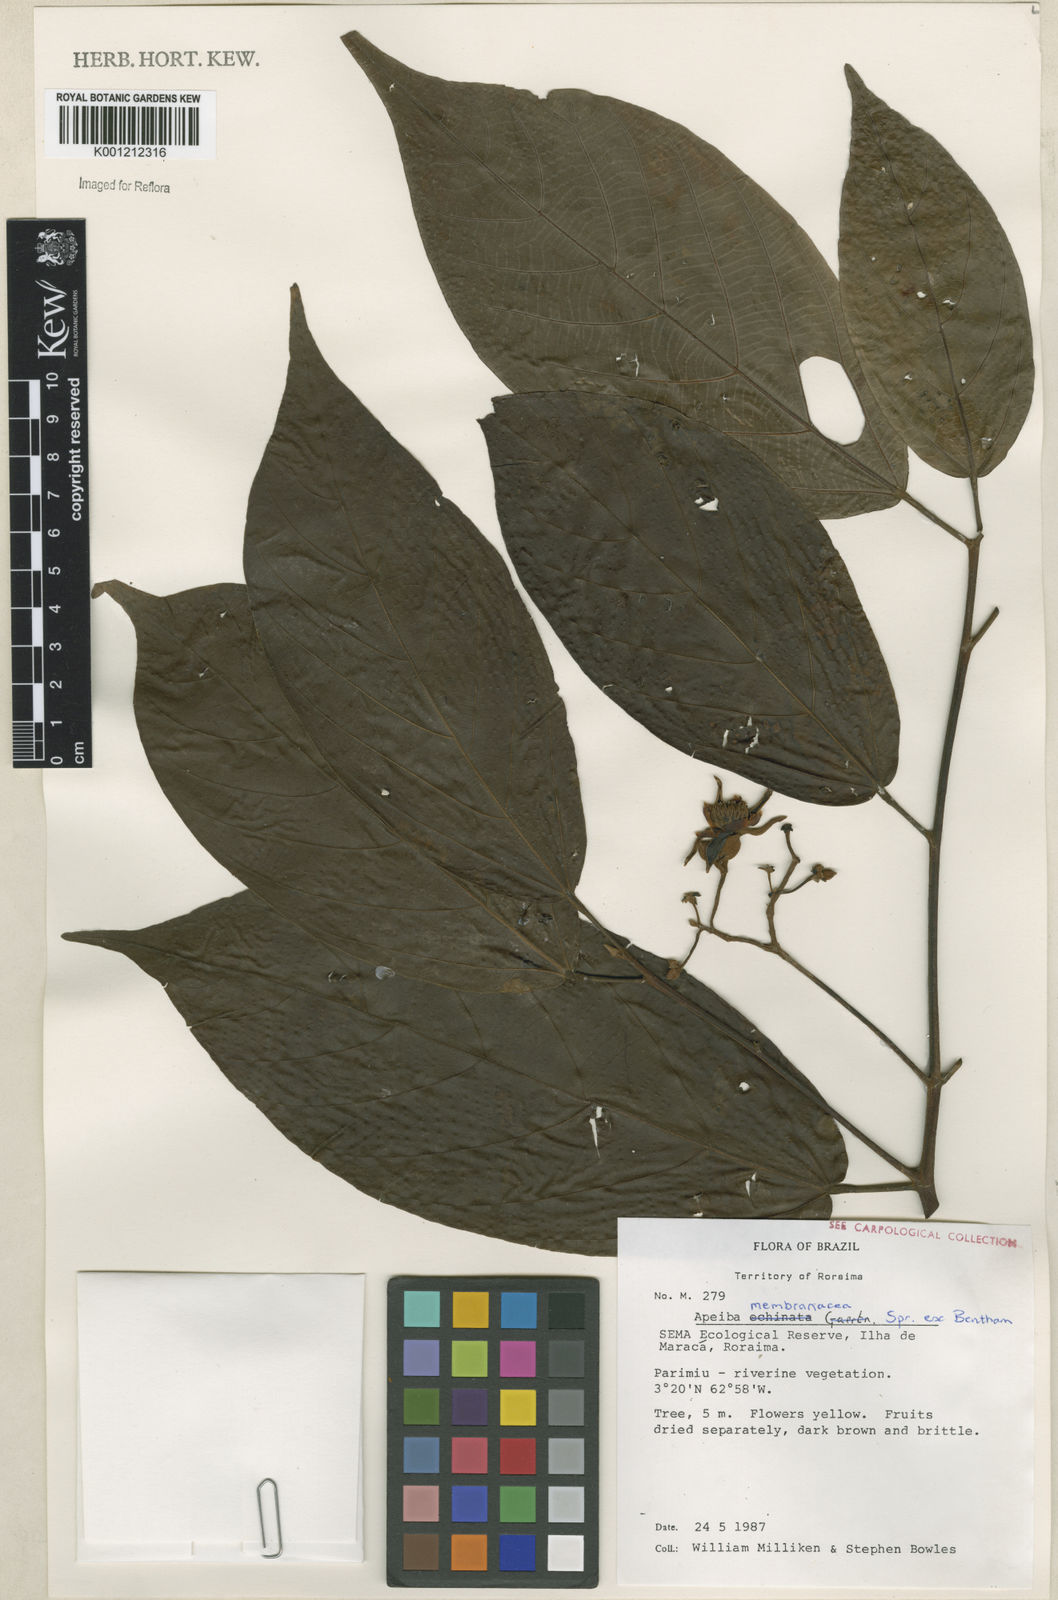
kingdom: Plantae
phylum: Tracheophyta
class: Magnoliopsida
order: Malvales
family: Malvaceae
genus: Apeiba
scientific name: Apeiba membranacea
